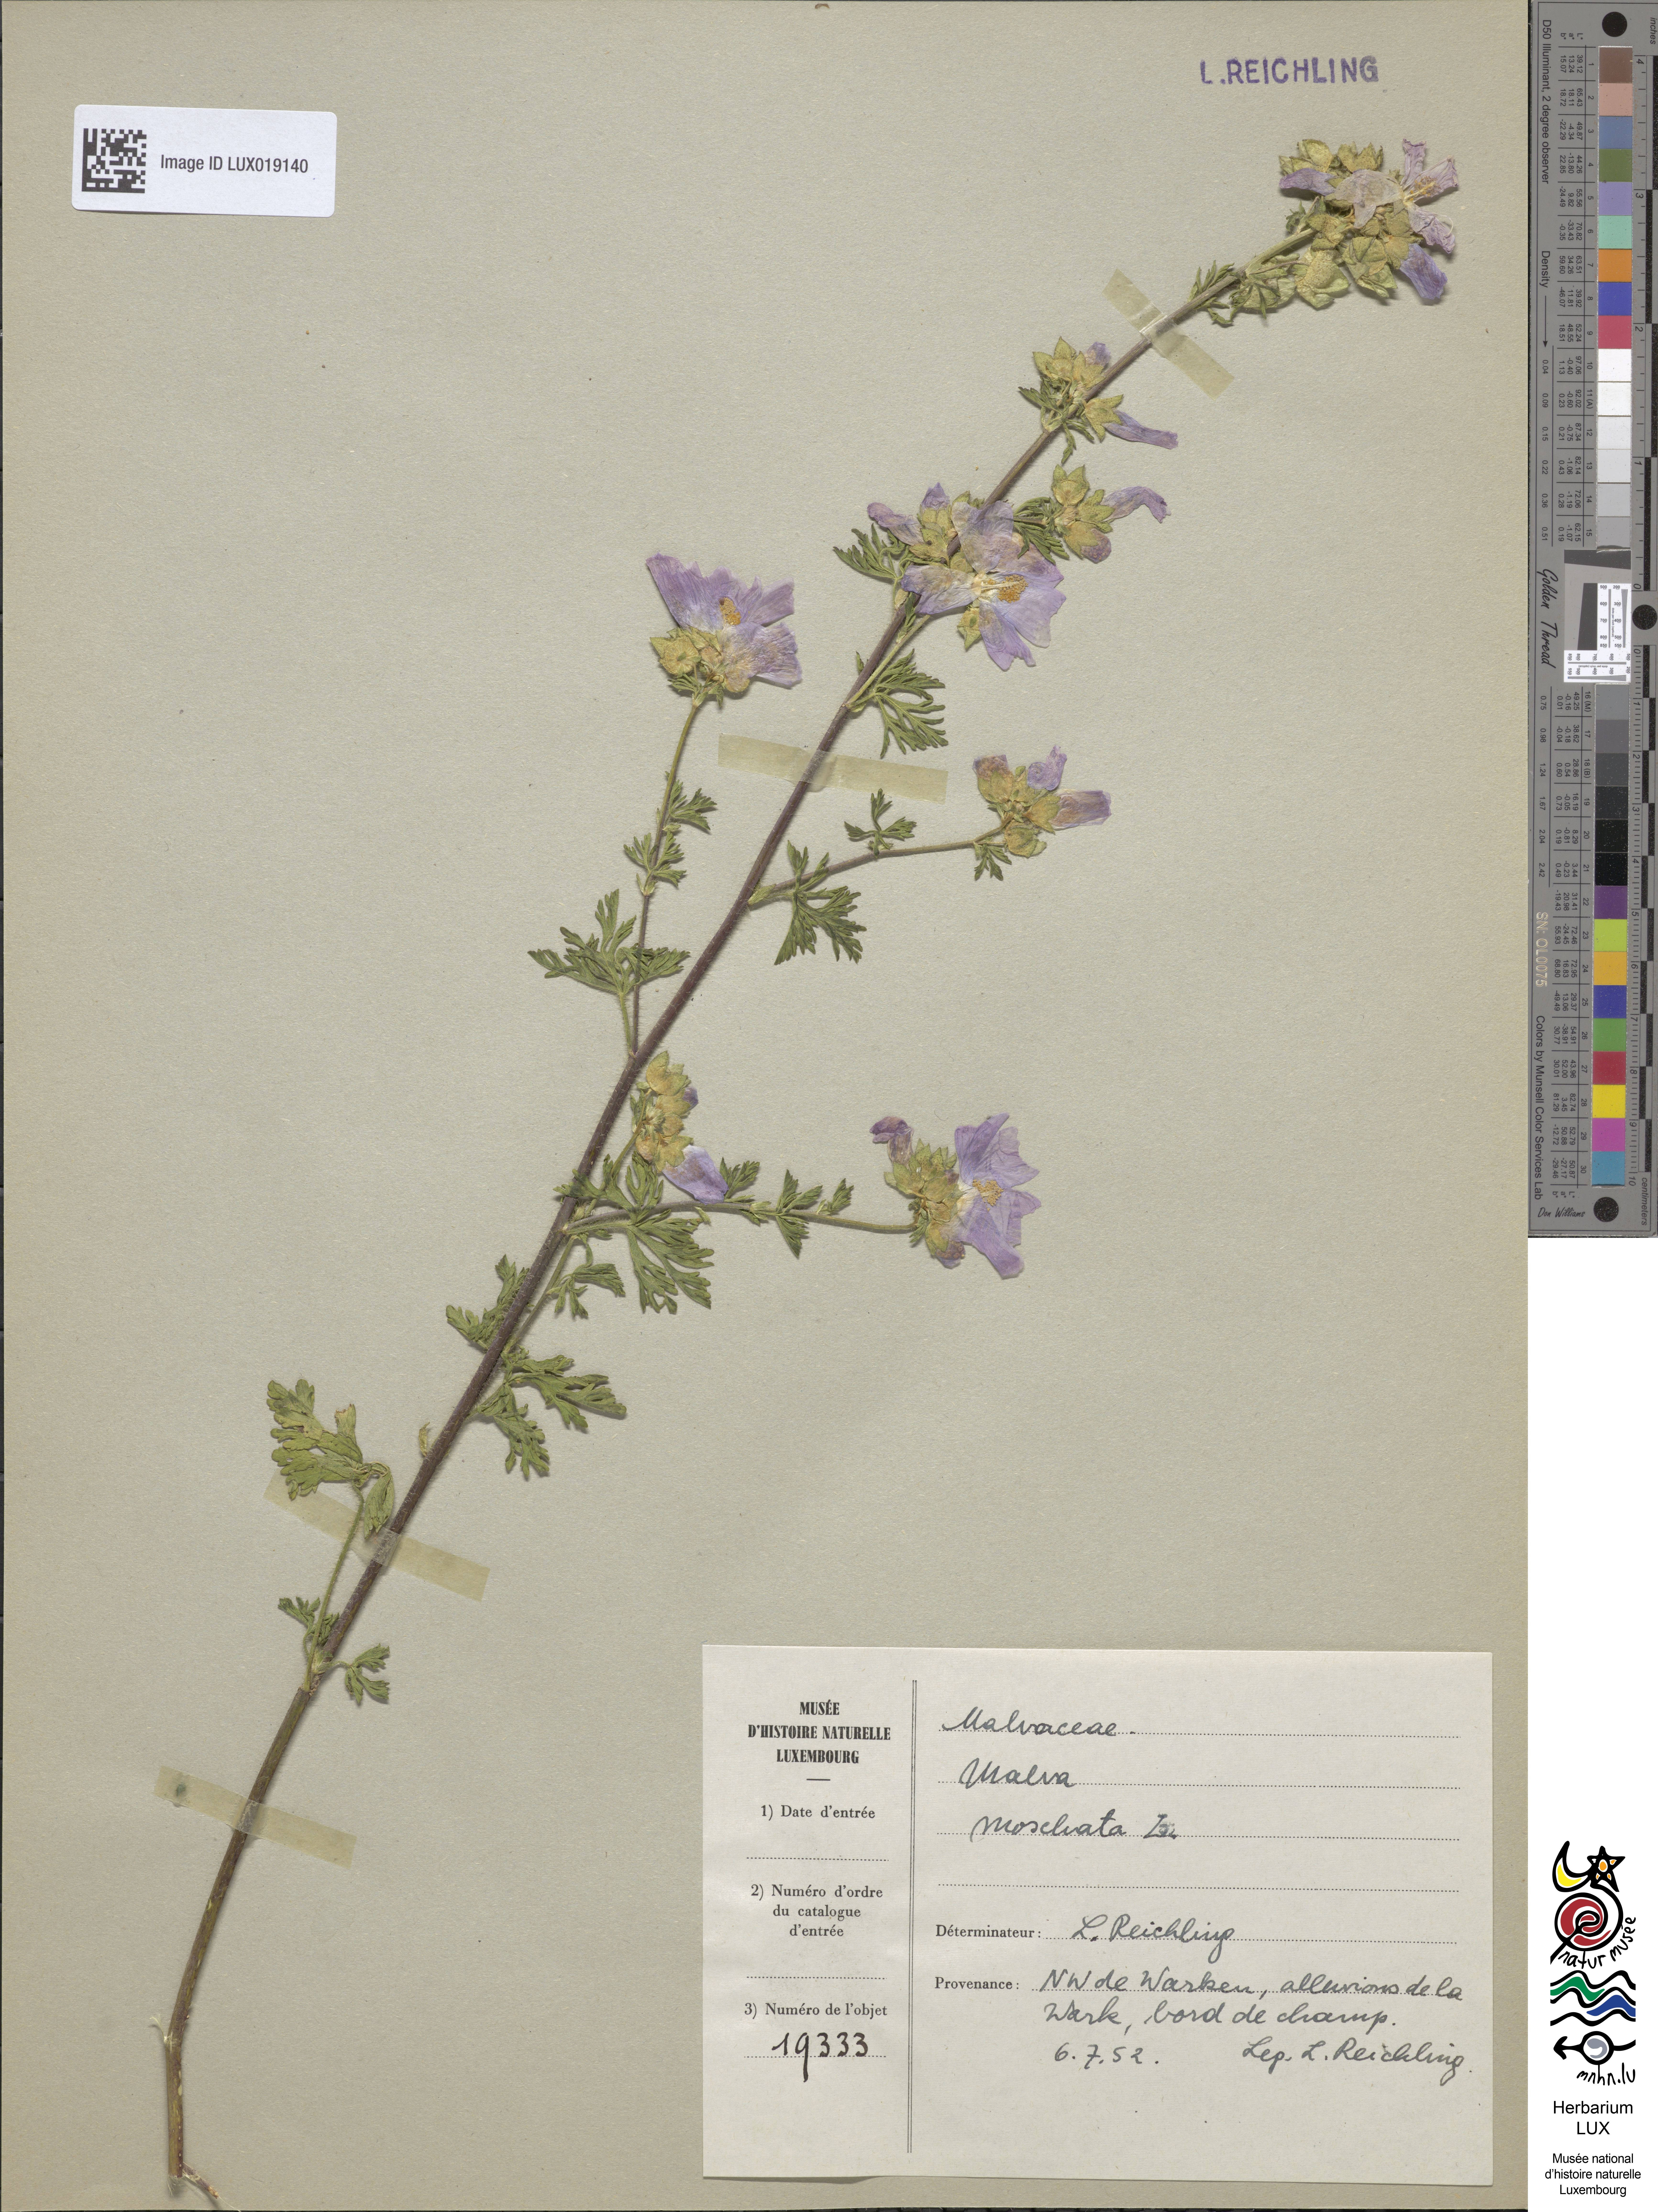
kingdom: Plantae
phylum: Tracheophyta
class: Magnoliopsida
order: Malvales
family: Malvaceae
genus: Malva
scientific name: Malva moschata
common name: Musk mallow
